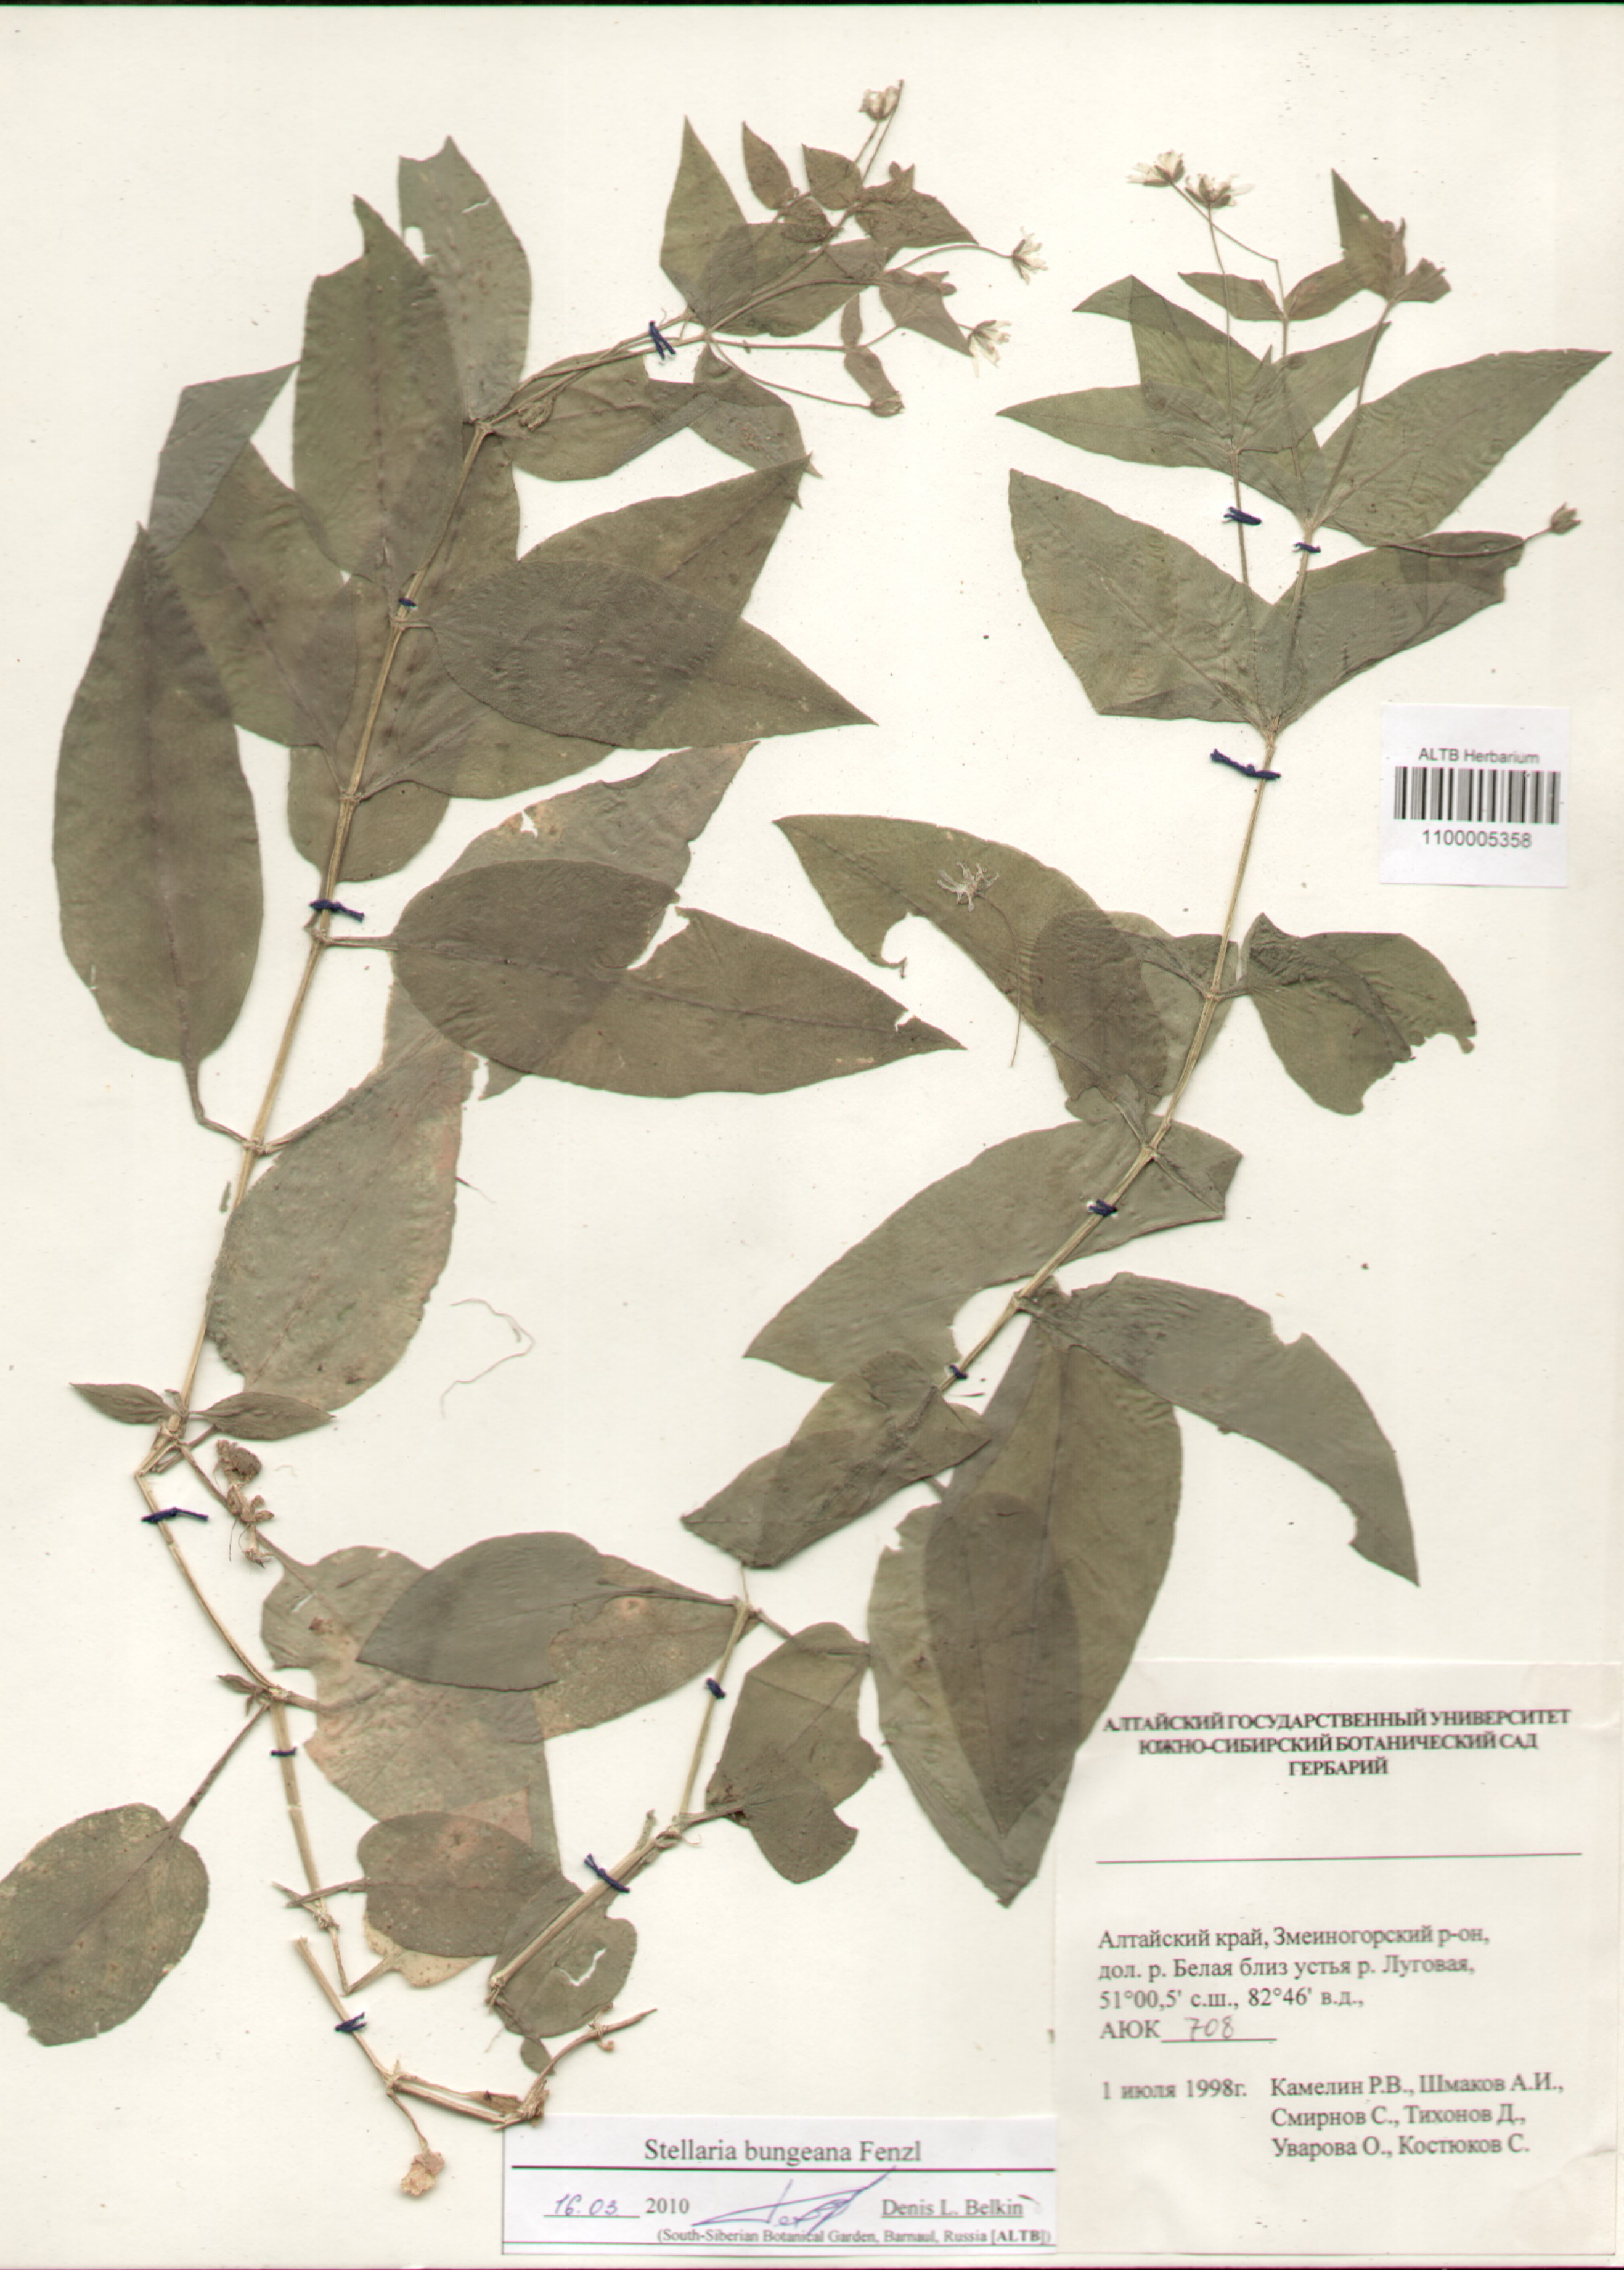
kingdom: Plantae
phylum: Tracheophyta
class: Magnoliopsida
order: Caryophyllales
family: Caryophyllaceae
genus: Stellaria
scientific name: Stellaria bungeana
